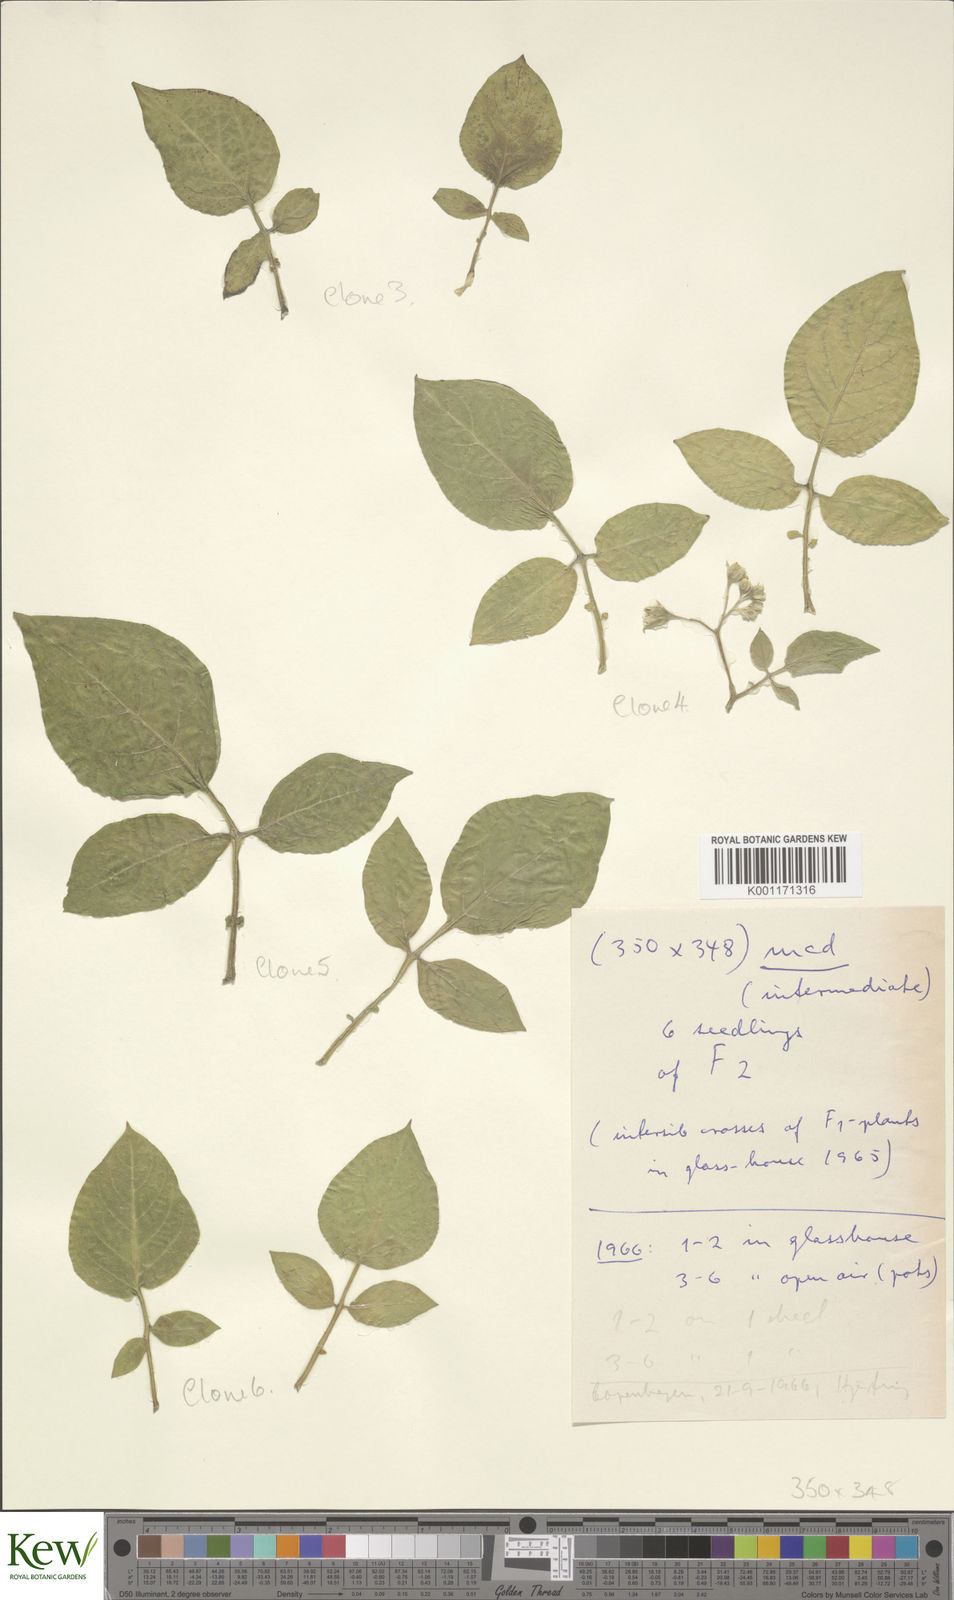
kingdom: Plantae
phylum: Tracheophyta
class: Magnoliopsida
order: Solanales
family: Solanaceae
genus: Solanum
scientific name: Solanum microdontum
